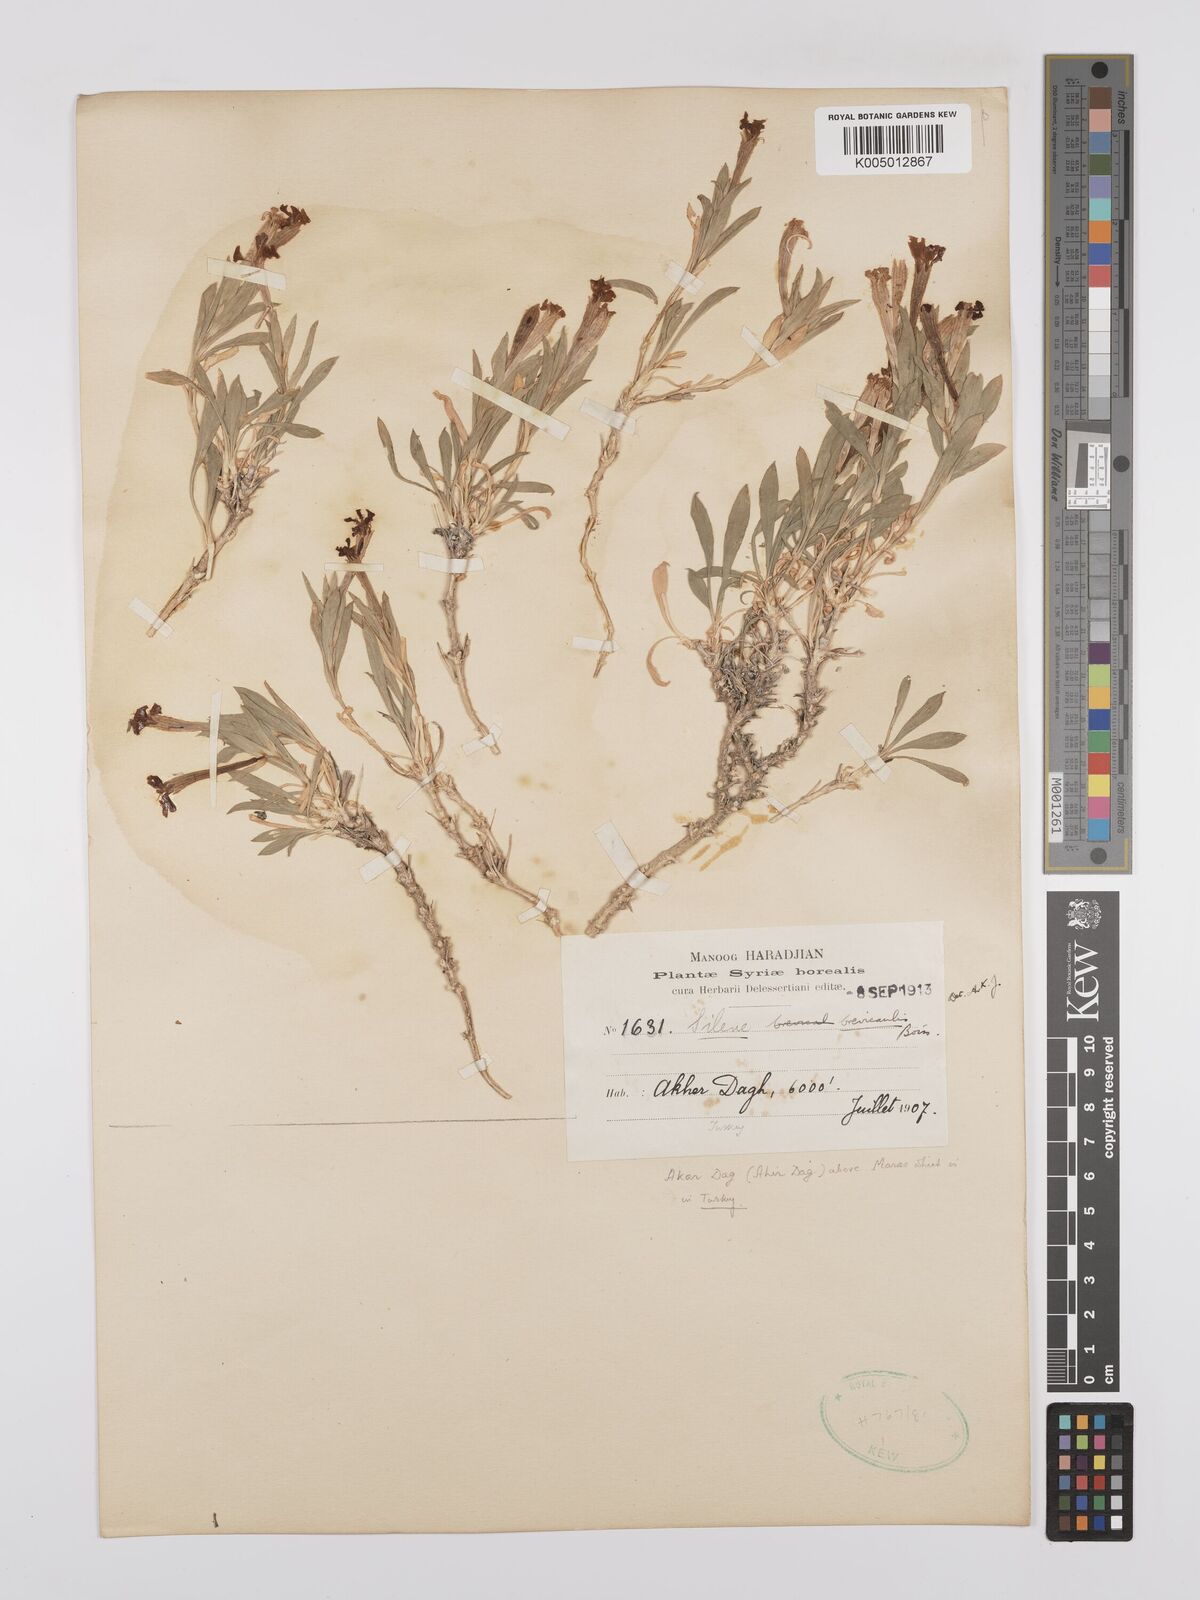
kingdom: Plantae
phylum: Tracheophyta
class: Magnoliopsida
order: Caryophyllales
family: Caryophyllaceae
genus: Silene
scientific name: Silene brevicaulis
